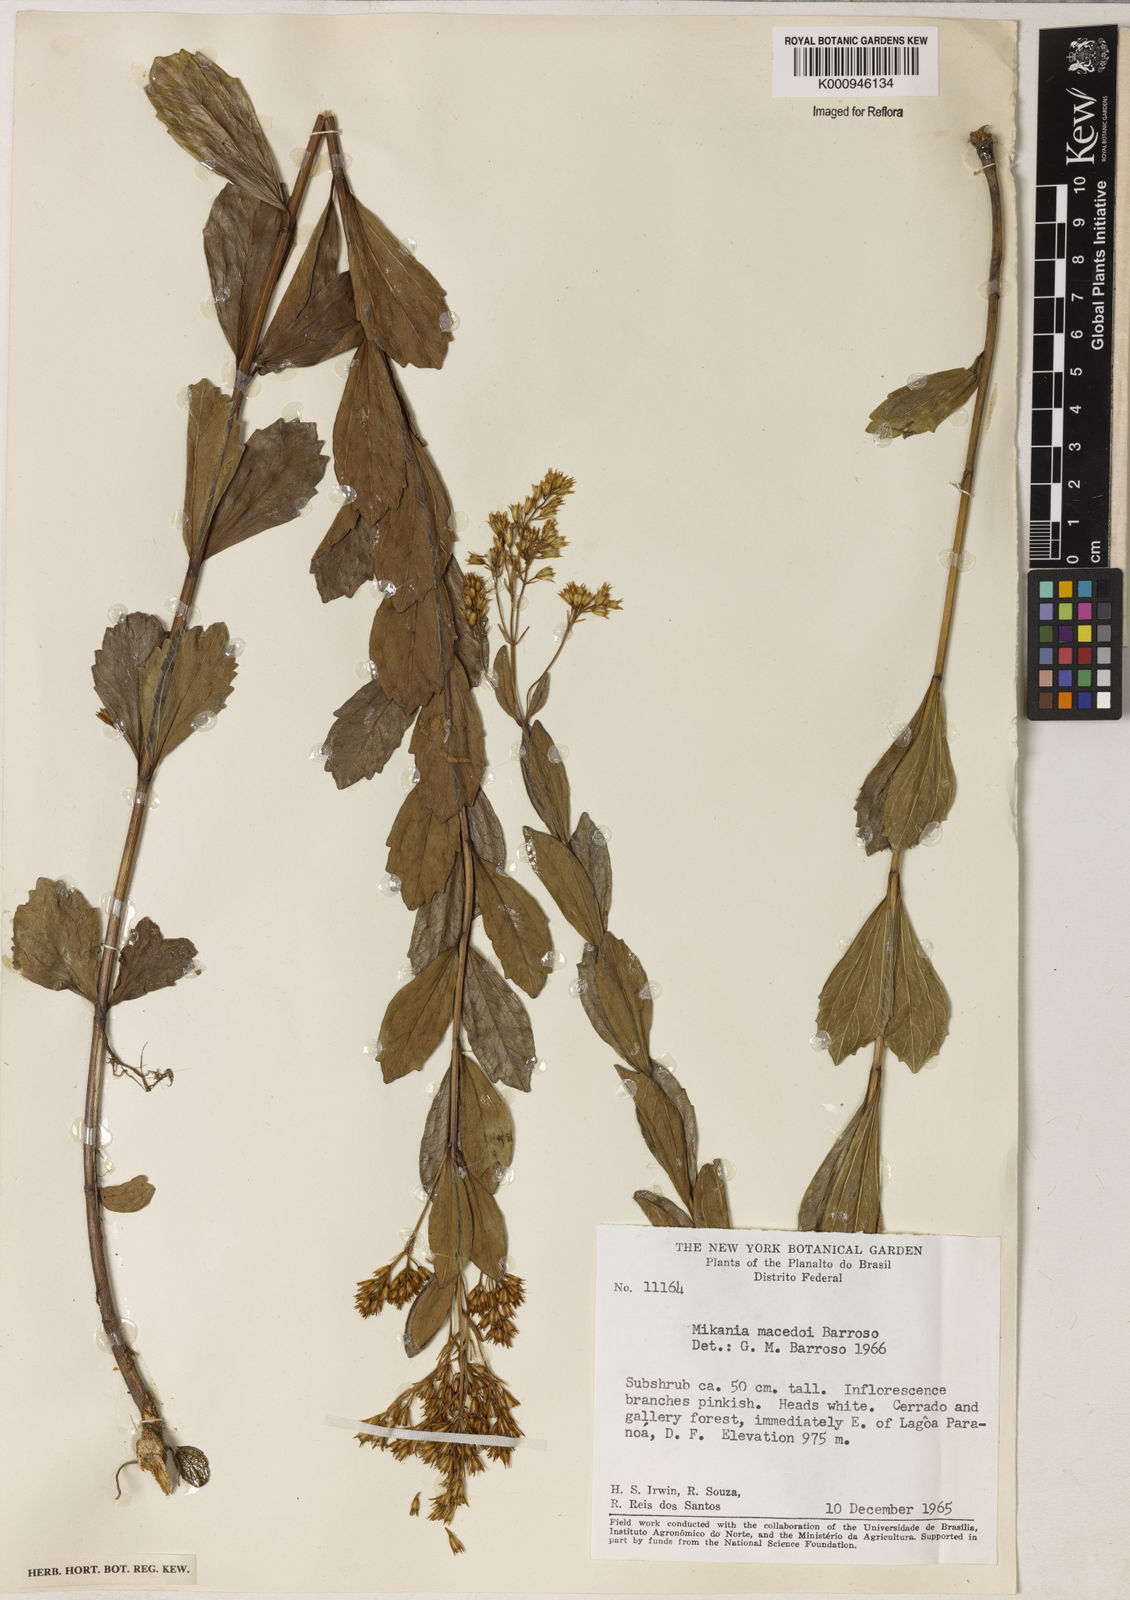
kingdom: Plantae
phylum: Tracheophyta
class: Magnoliopsida
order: Asterales
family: Asteraceae
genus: Mikania
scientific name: Mikania macedoi
